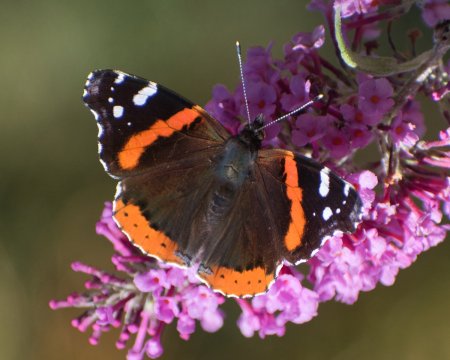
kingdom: Animalia
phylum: Arthropoda
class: Insecta
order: Lepidoptera
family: Nymphalidae
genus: Vanessa
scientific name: Vanessa atalanta
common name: Red Admiral
